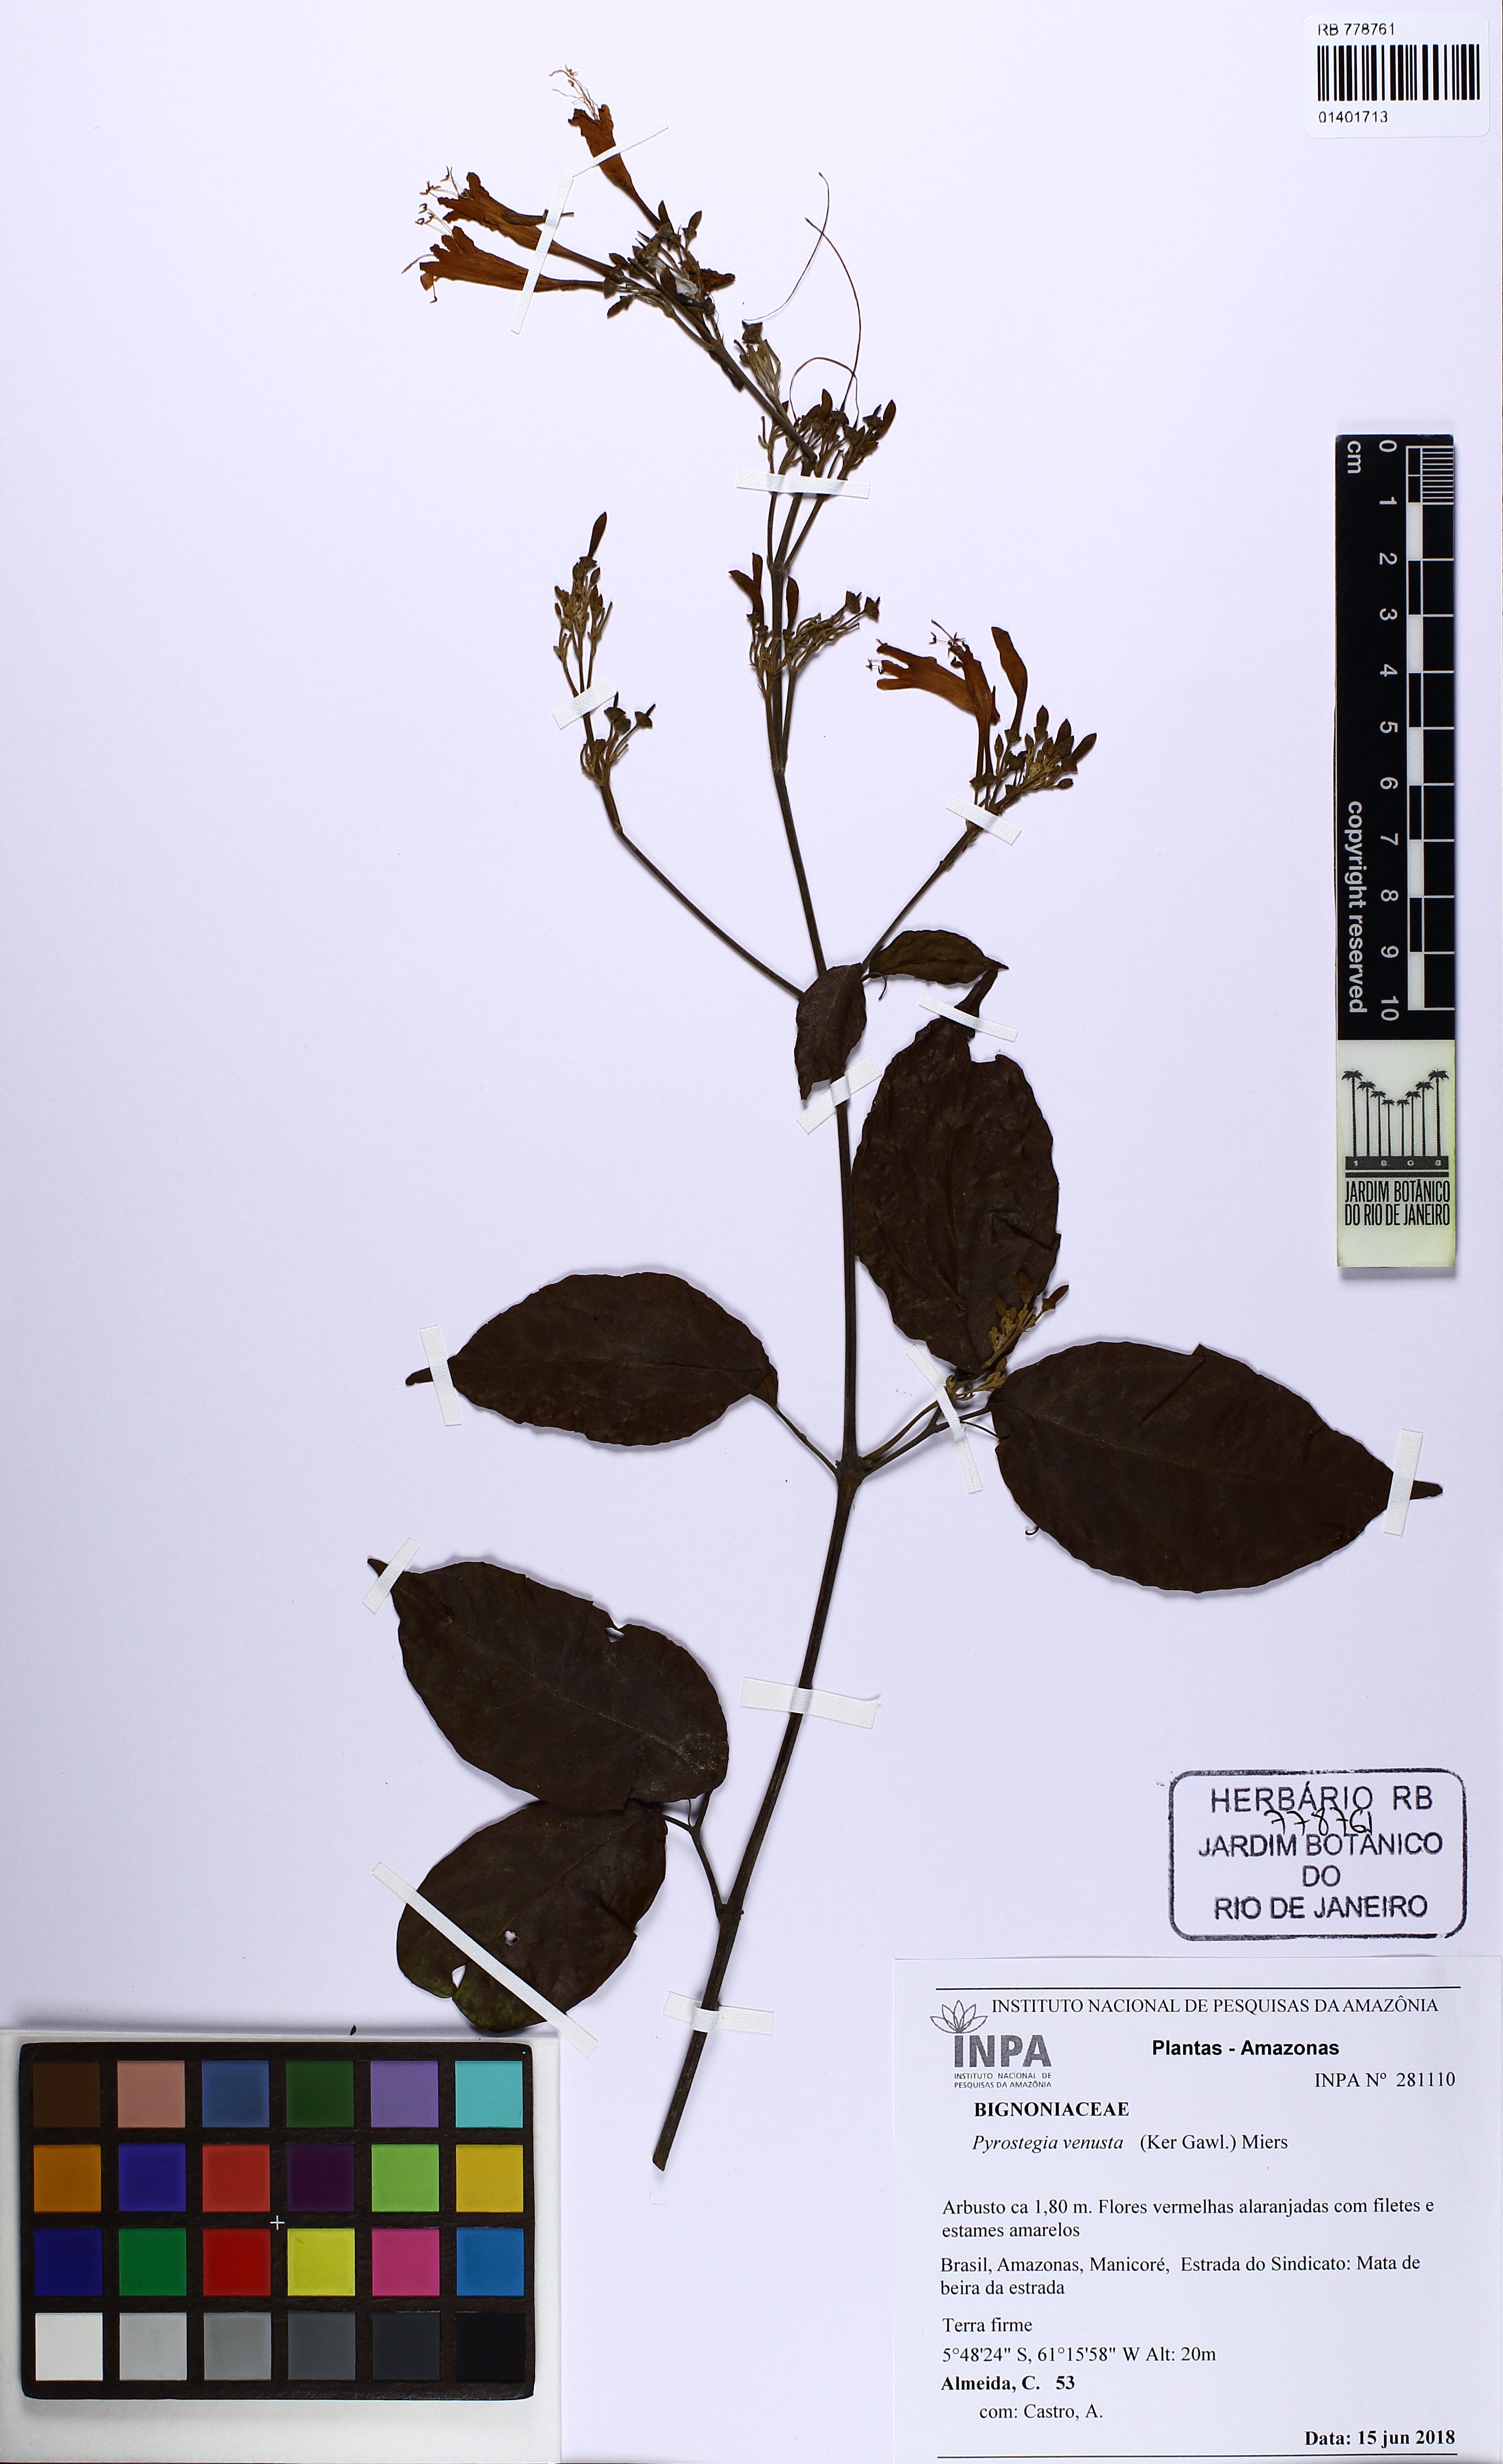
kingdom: Plantae
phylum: Tracheophyta
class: Magnoliopsida
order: Lamiales
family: Bignoniaceae
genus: Pyrostegia
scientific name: Pyrostegia venusta
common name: Flamevine
